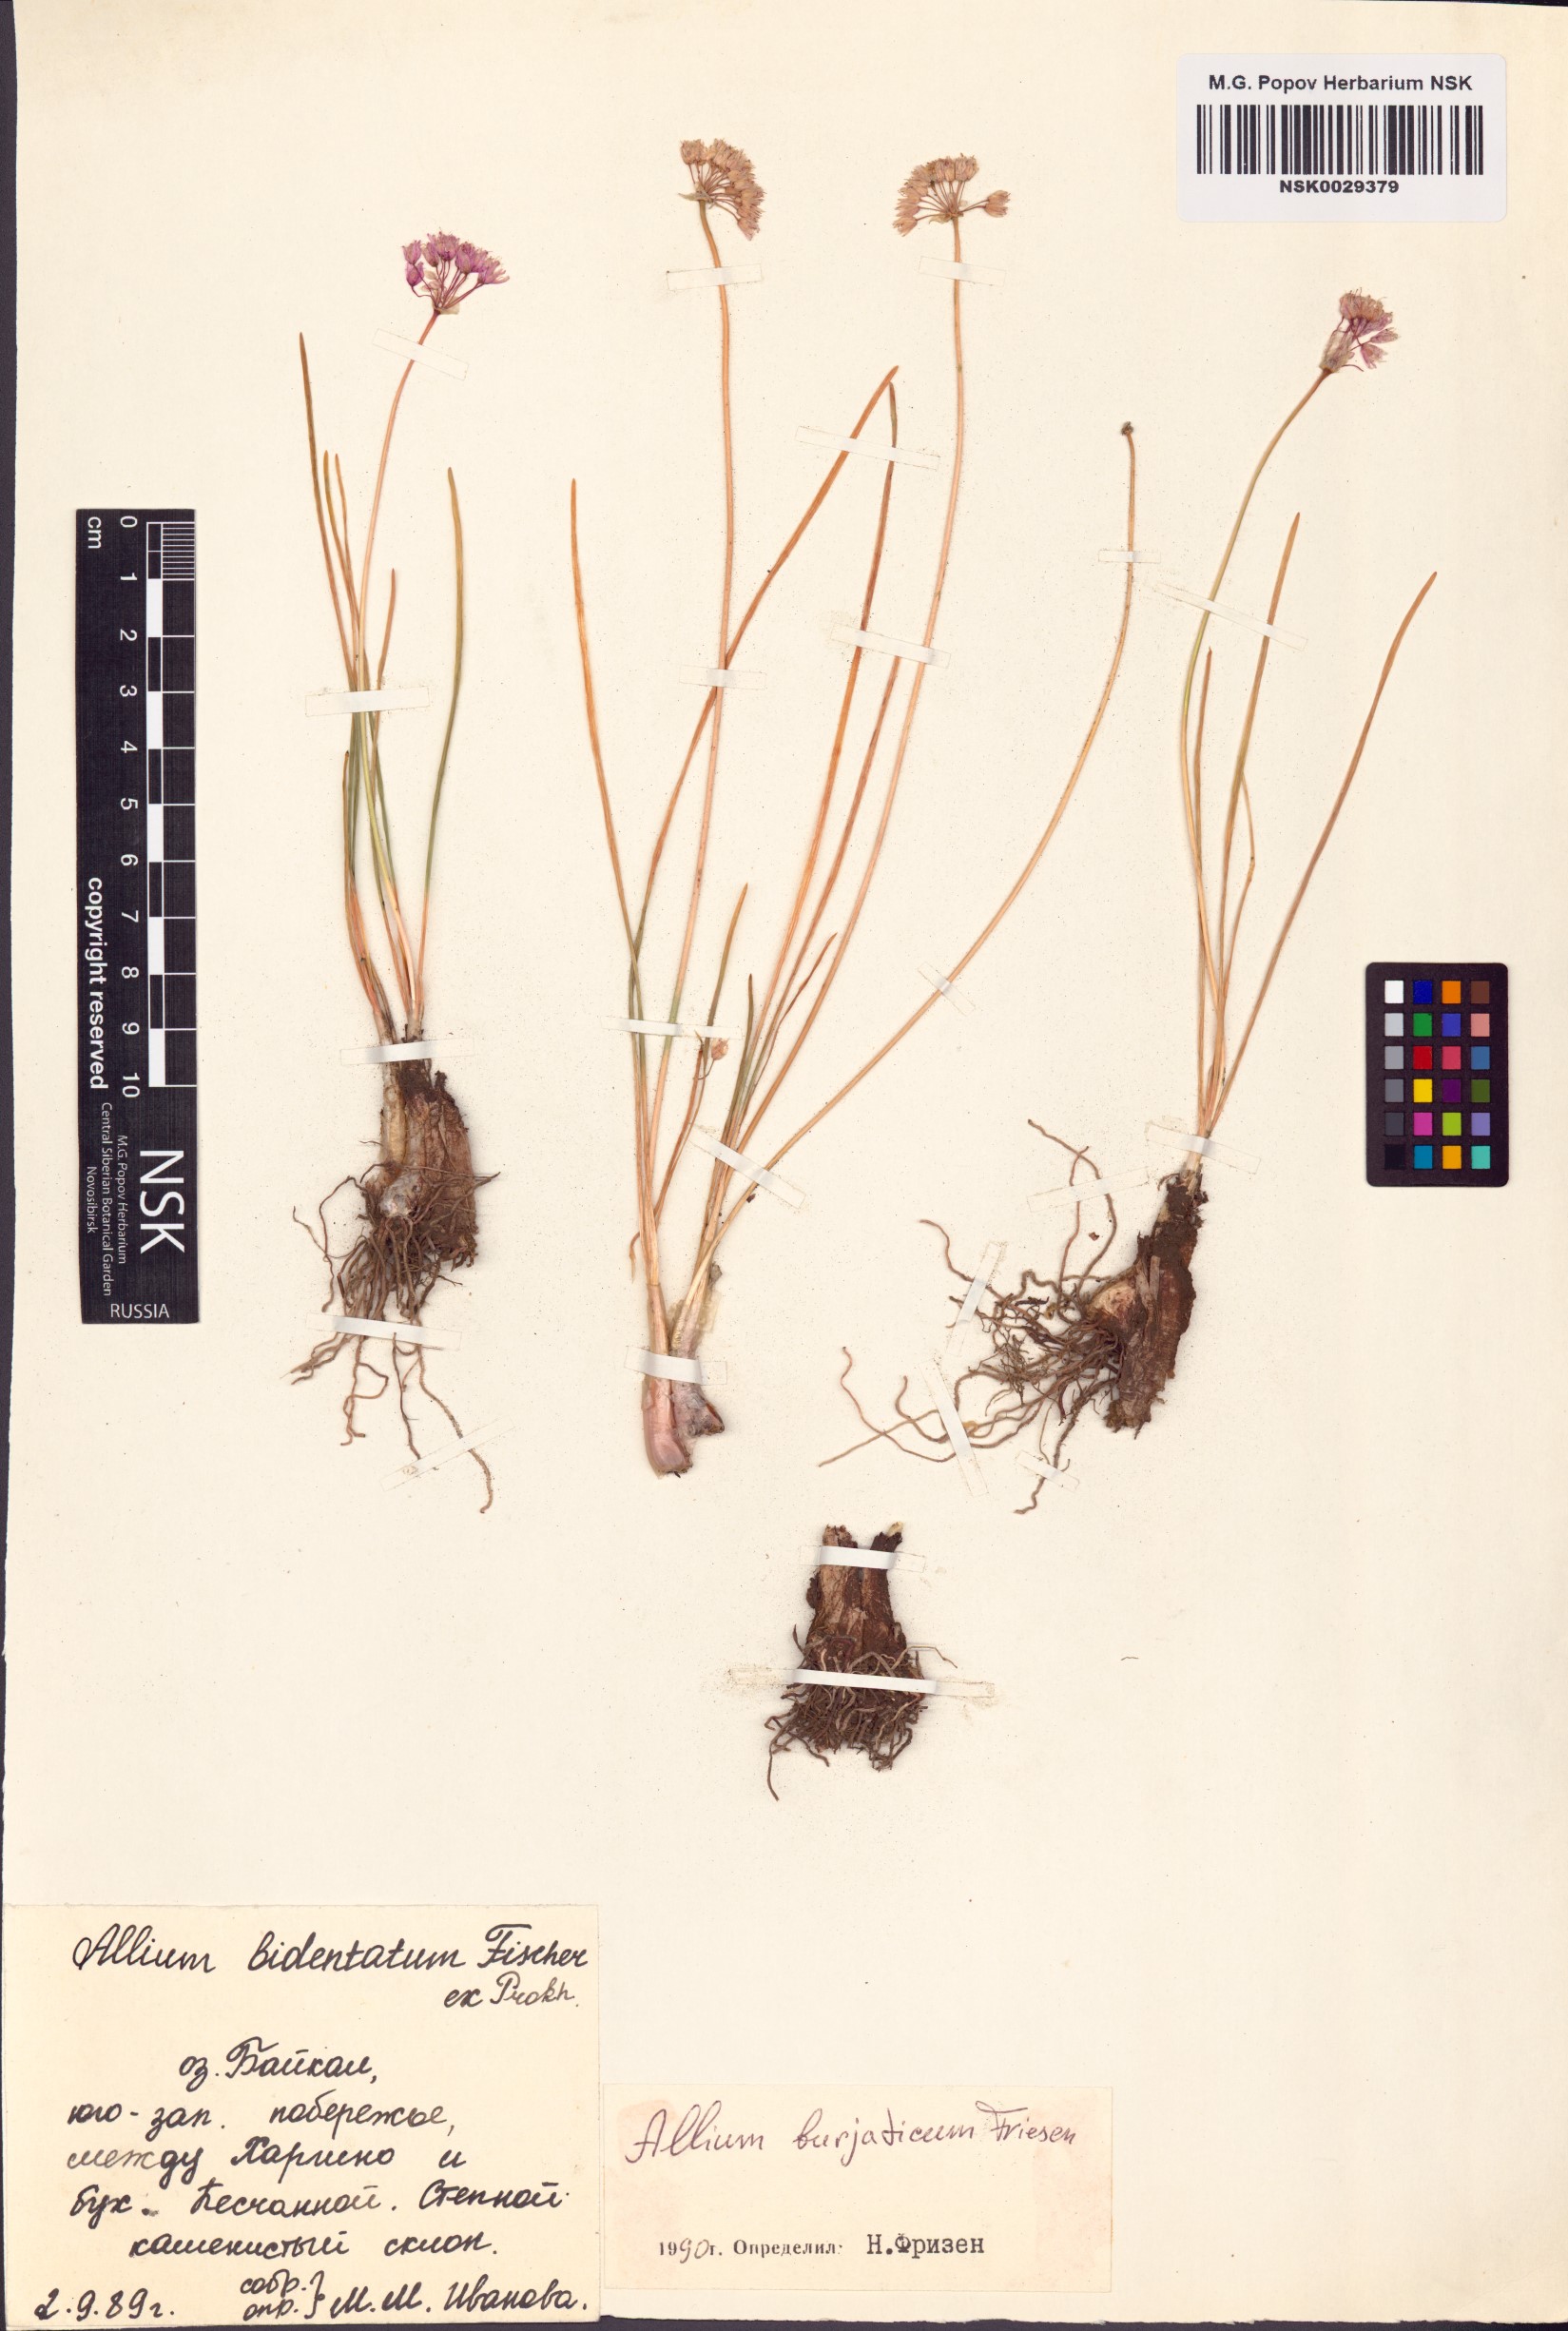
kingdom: Plantae
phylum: Tracheophyta
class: Liliopsida
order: Asparagales
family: Amaryllidaceae
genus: Allium
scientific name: Allium burjaticum
